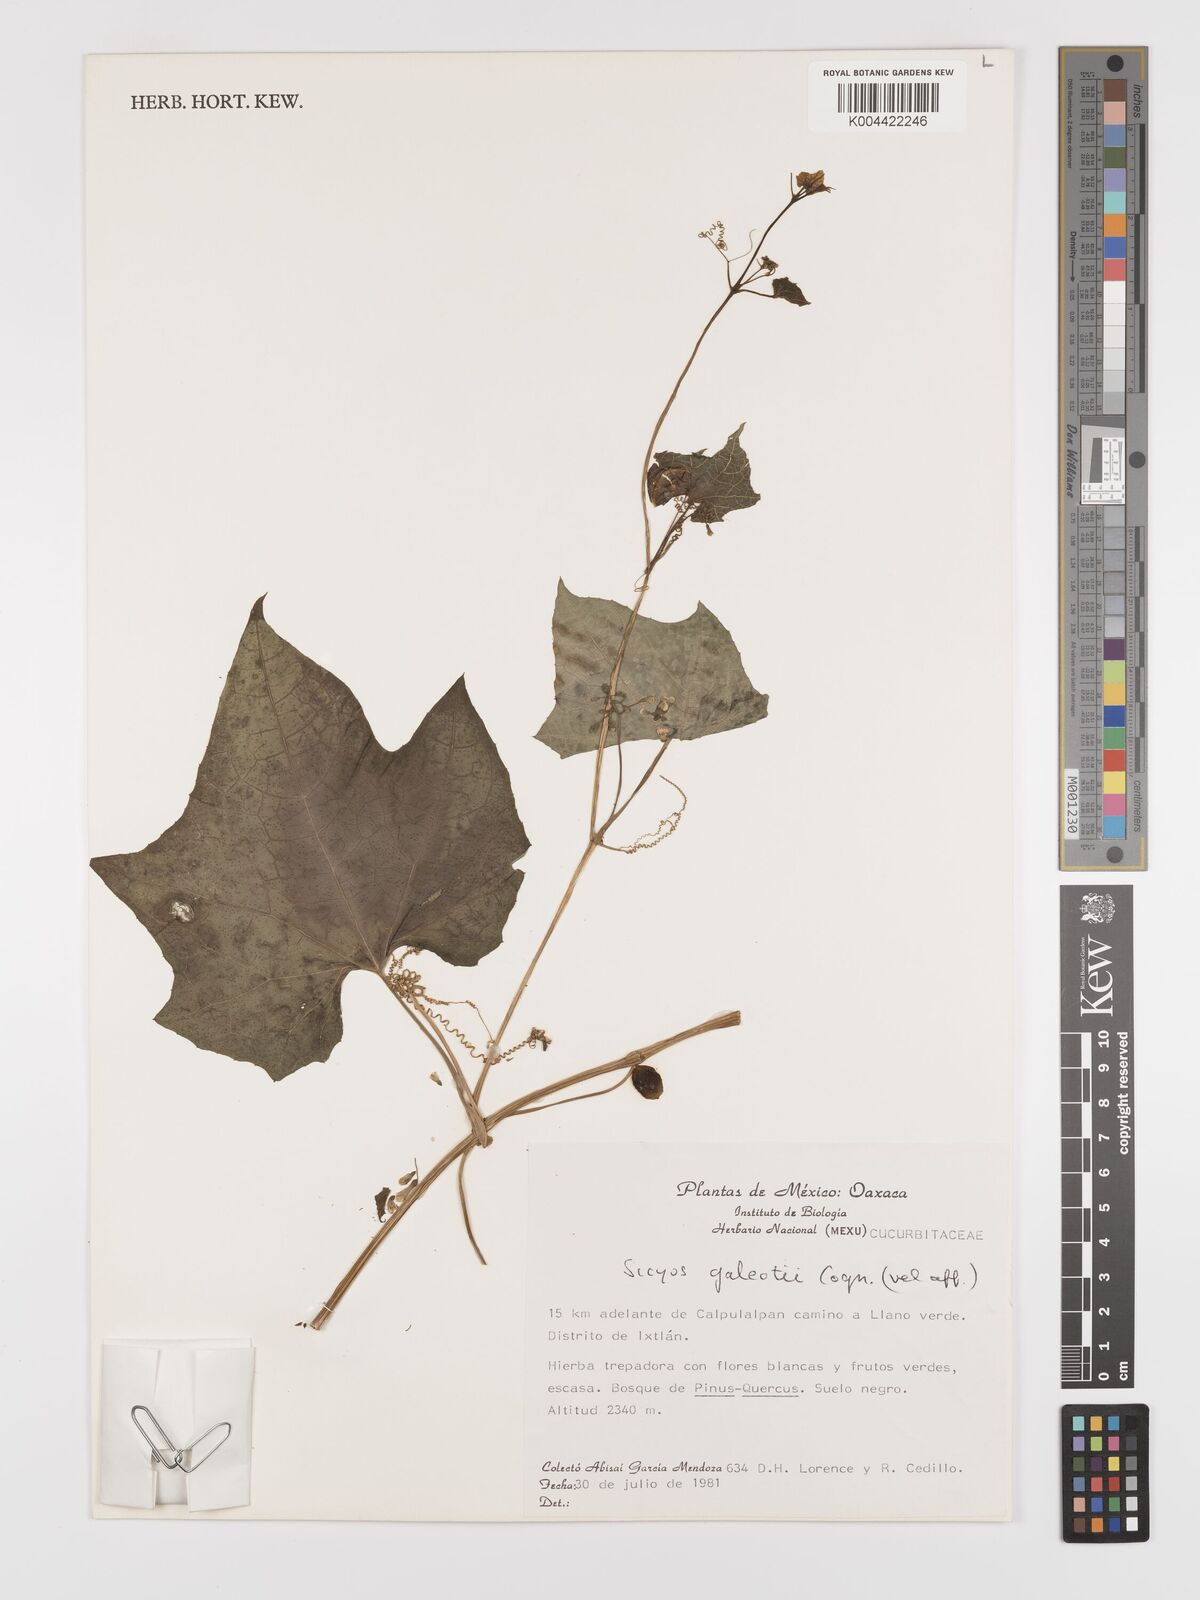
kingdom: Plantae
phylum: Tracheophyta
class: Magnoliopsida
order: Cucurbitales
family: Cucurbitaceae
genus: Parasicyos
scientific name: Parasicyos
